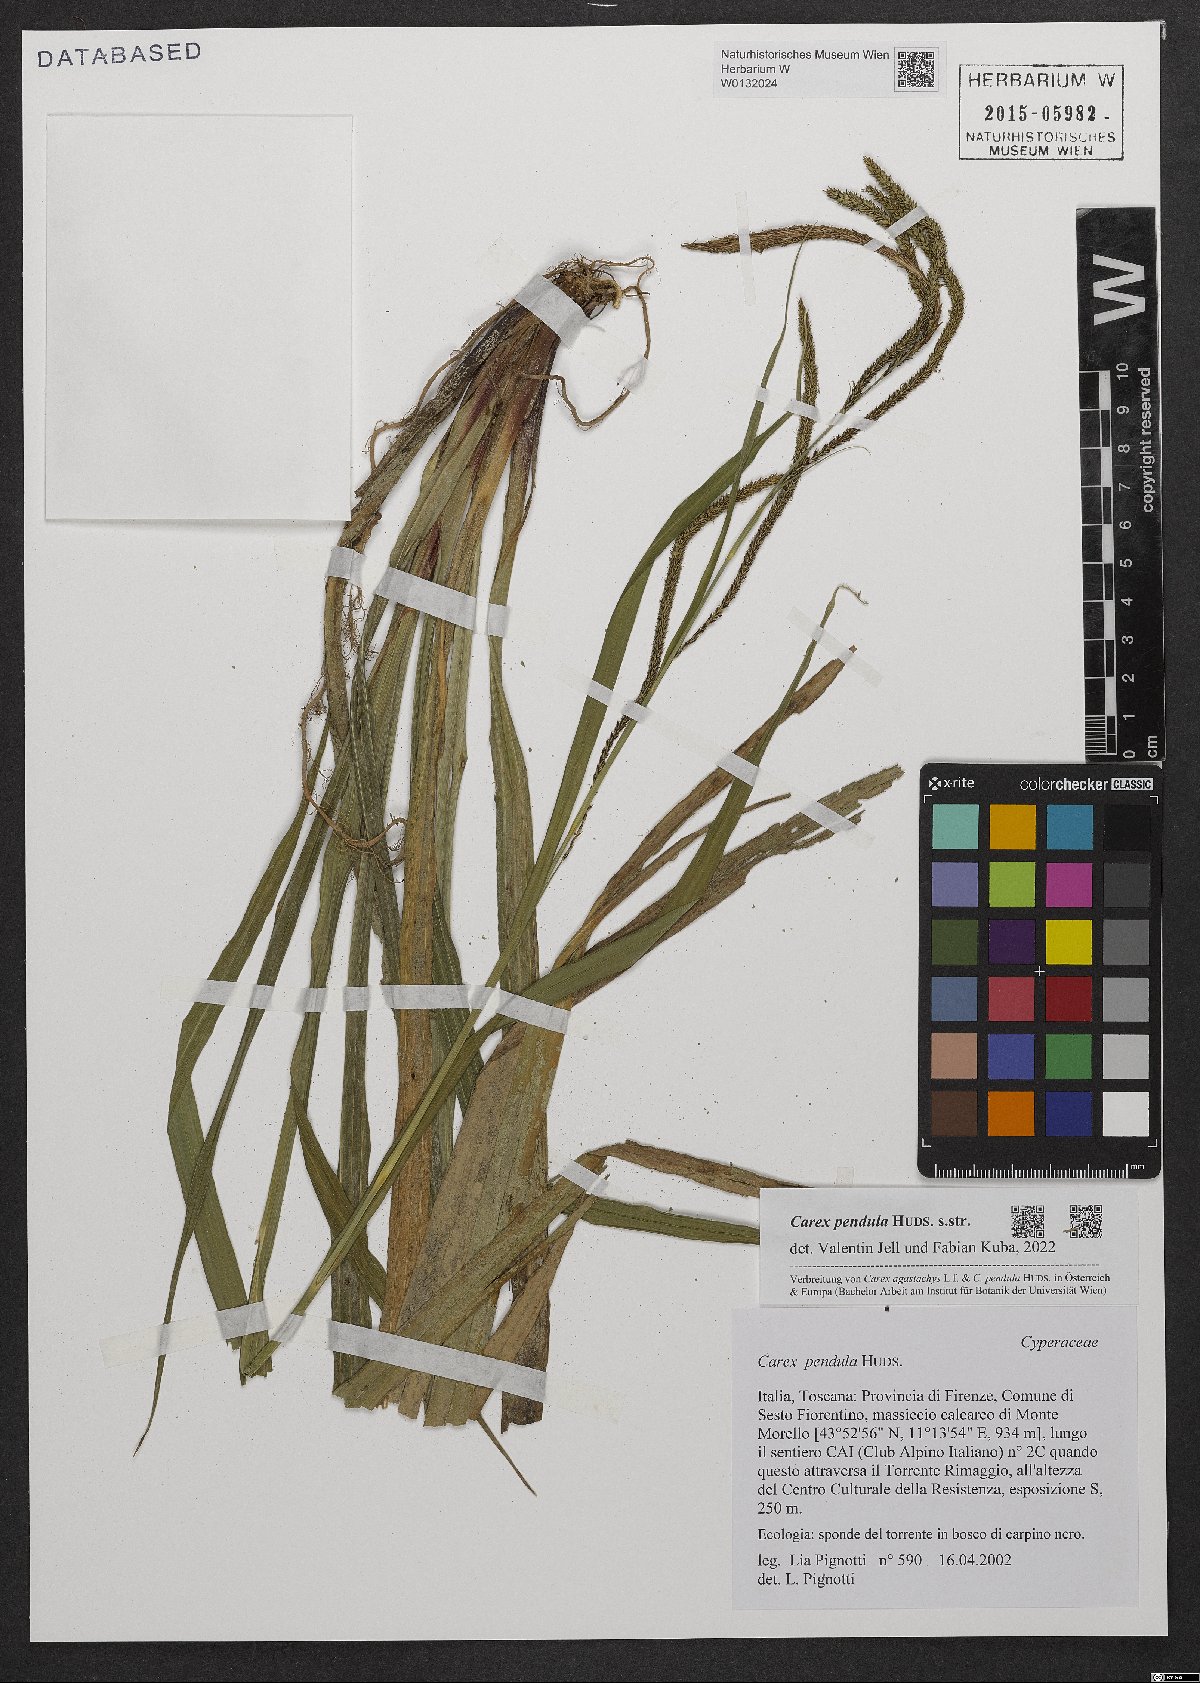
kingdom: Plantae
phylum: Tracheophyta
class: Liliopsida
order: Poales
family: Cyperaceae
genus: Carex
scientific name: Carex pendula
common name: Pendulous sedge
